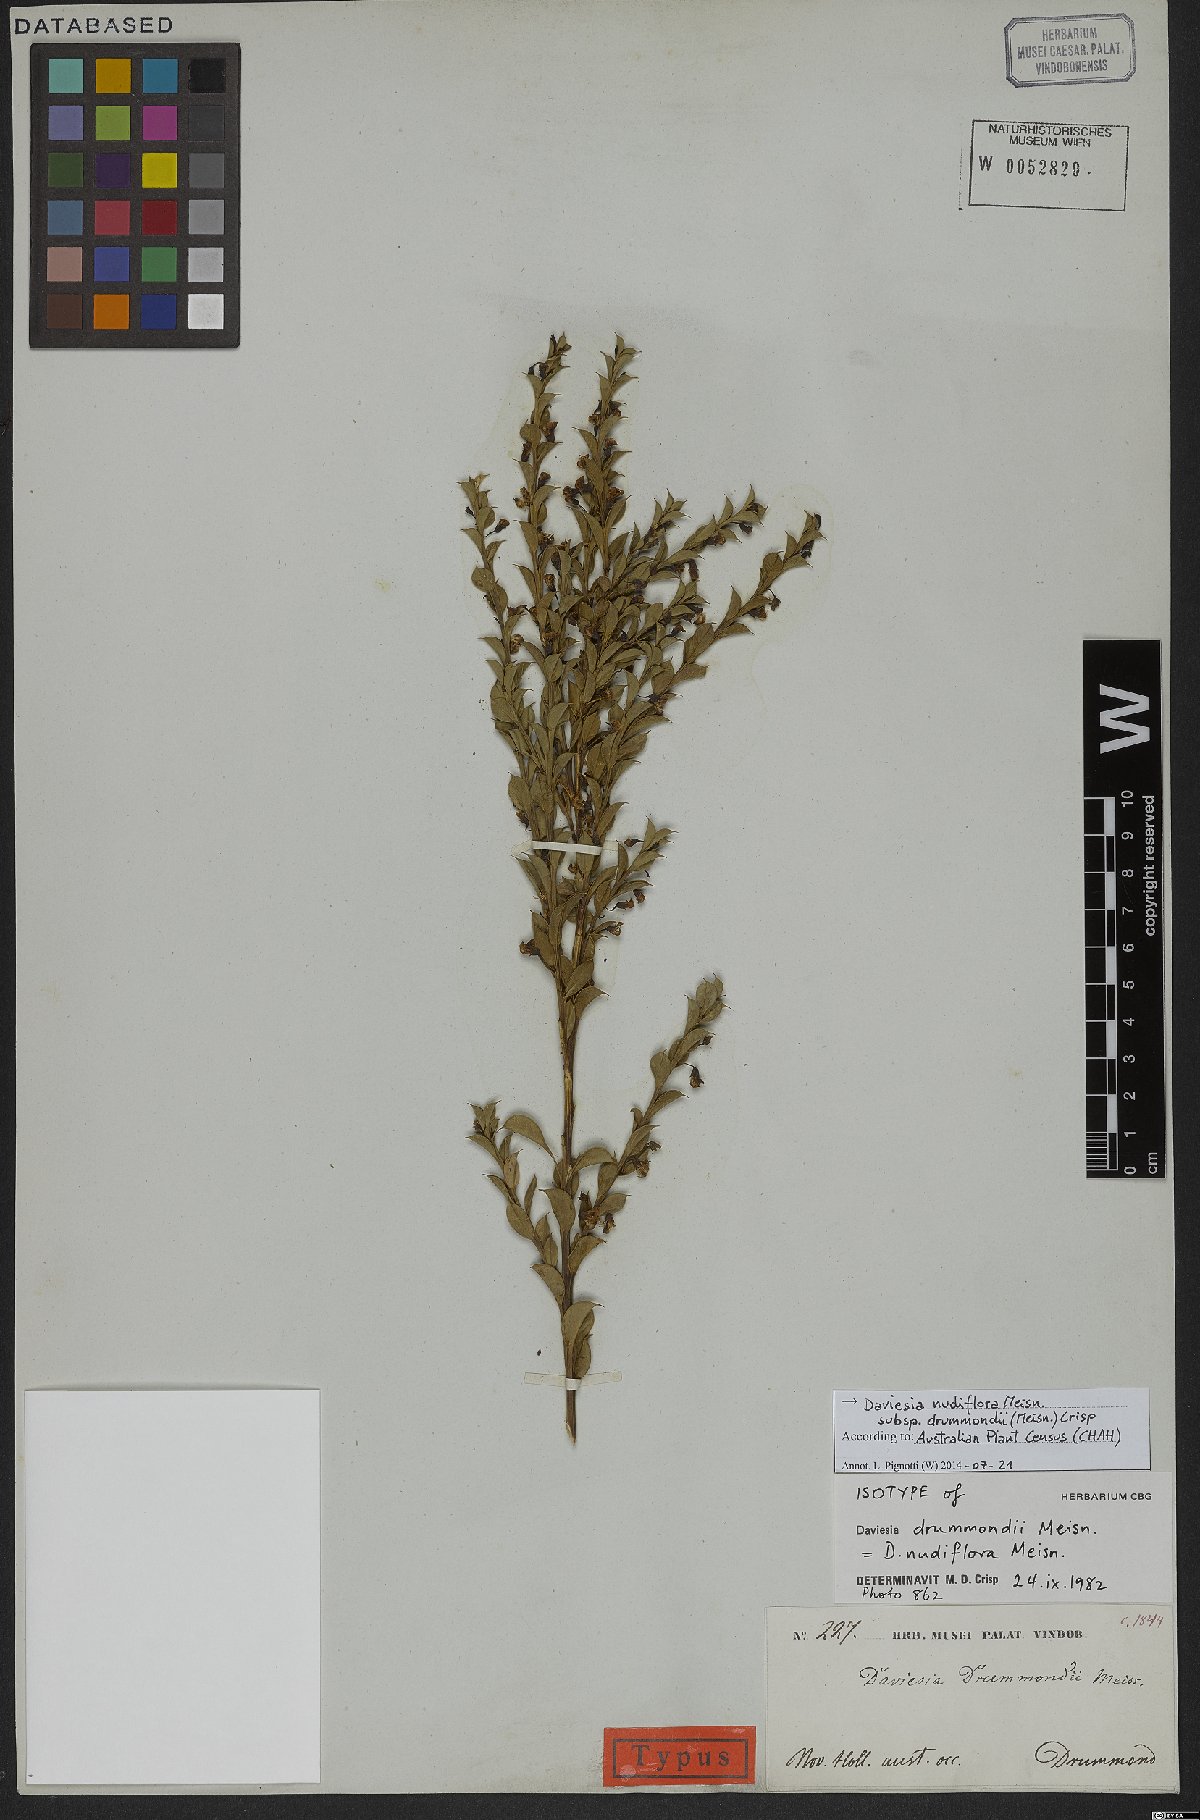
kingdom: Plantae
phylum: Tracheophyta
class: Magnoliopsida
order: Fabales
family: Fabaceae
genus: Daviesia
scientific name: Daviesia nudiflora
